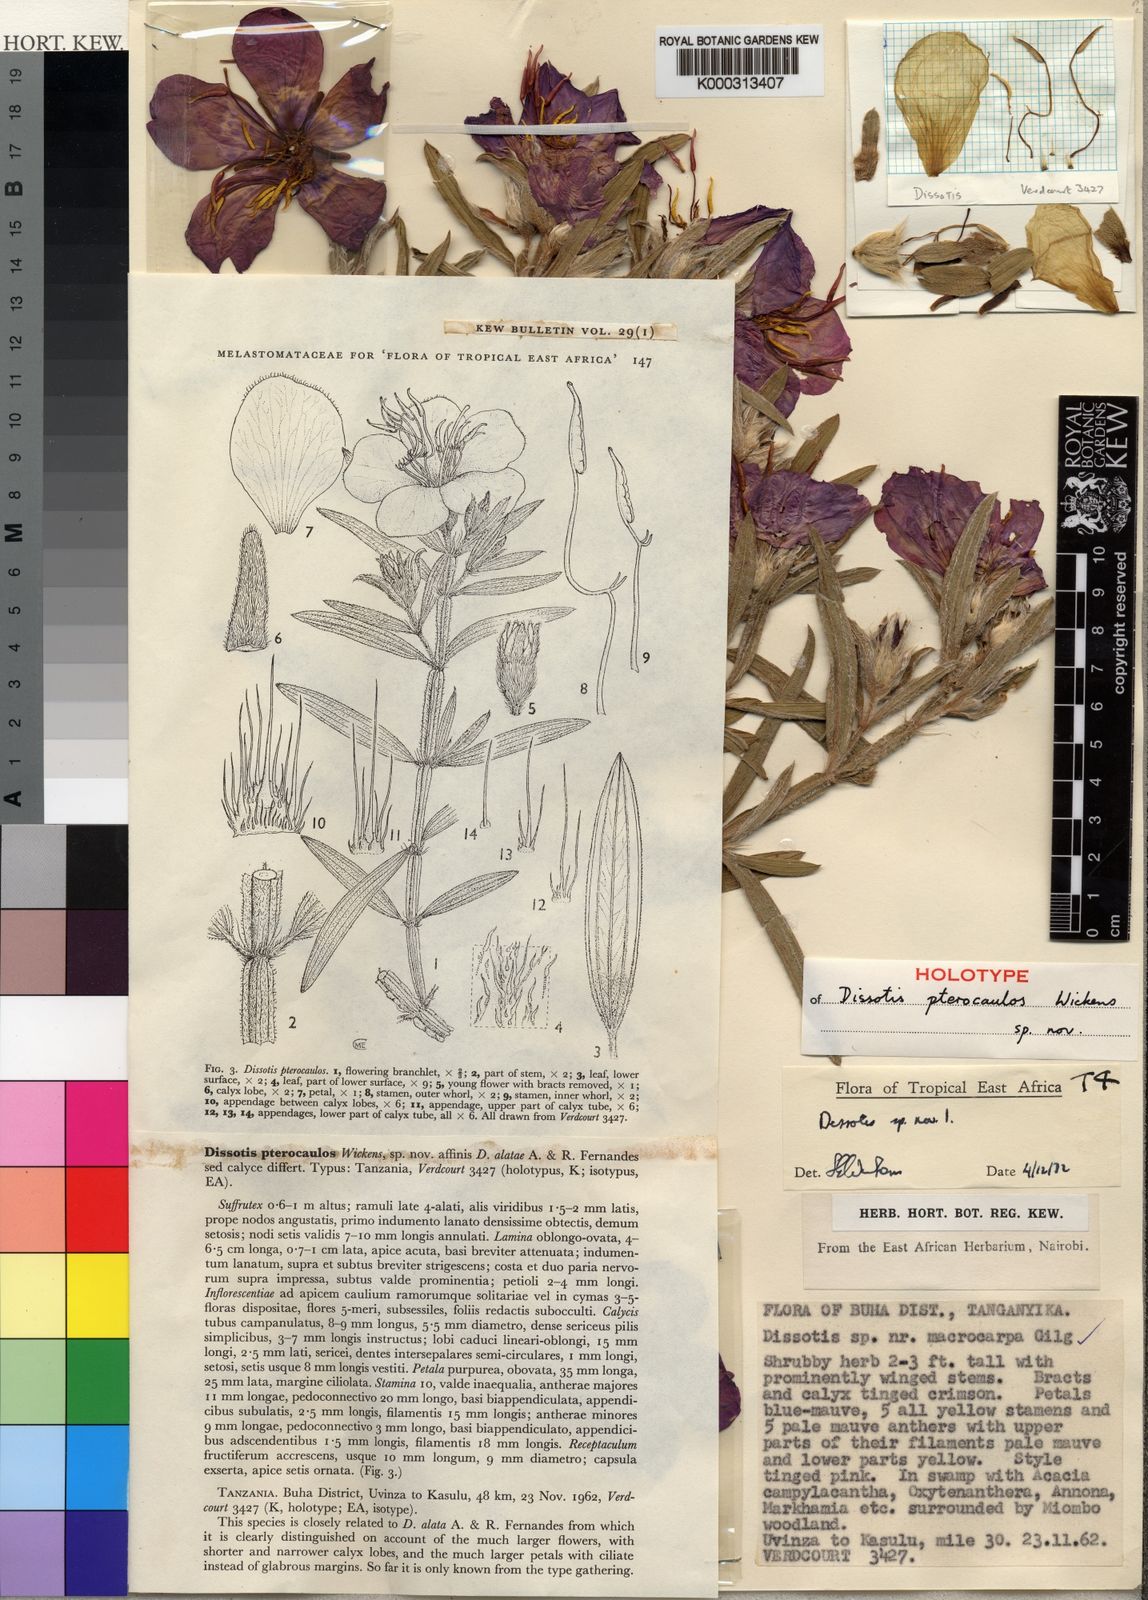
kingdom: Plantae
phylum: Tracheophyta
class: Magnoliopsida
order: Myrtales
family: Melastomataceae
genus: Feliciotis
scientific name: Feliciotis pterocaulos
